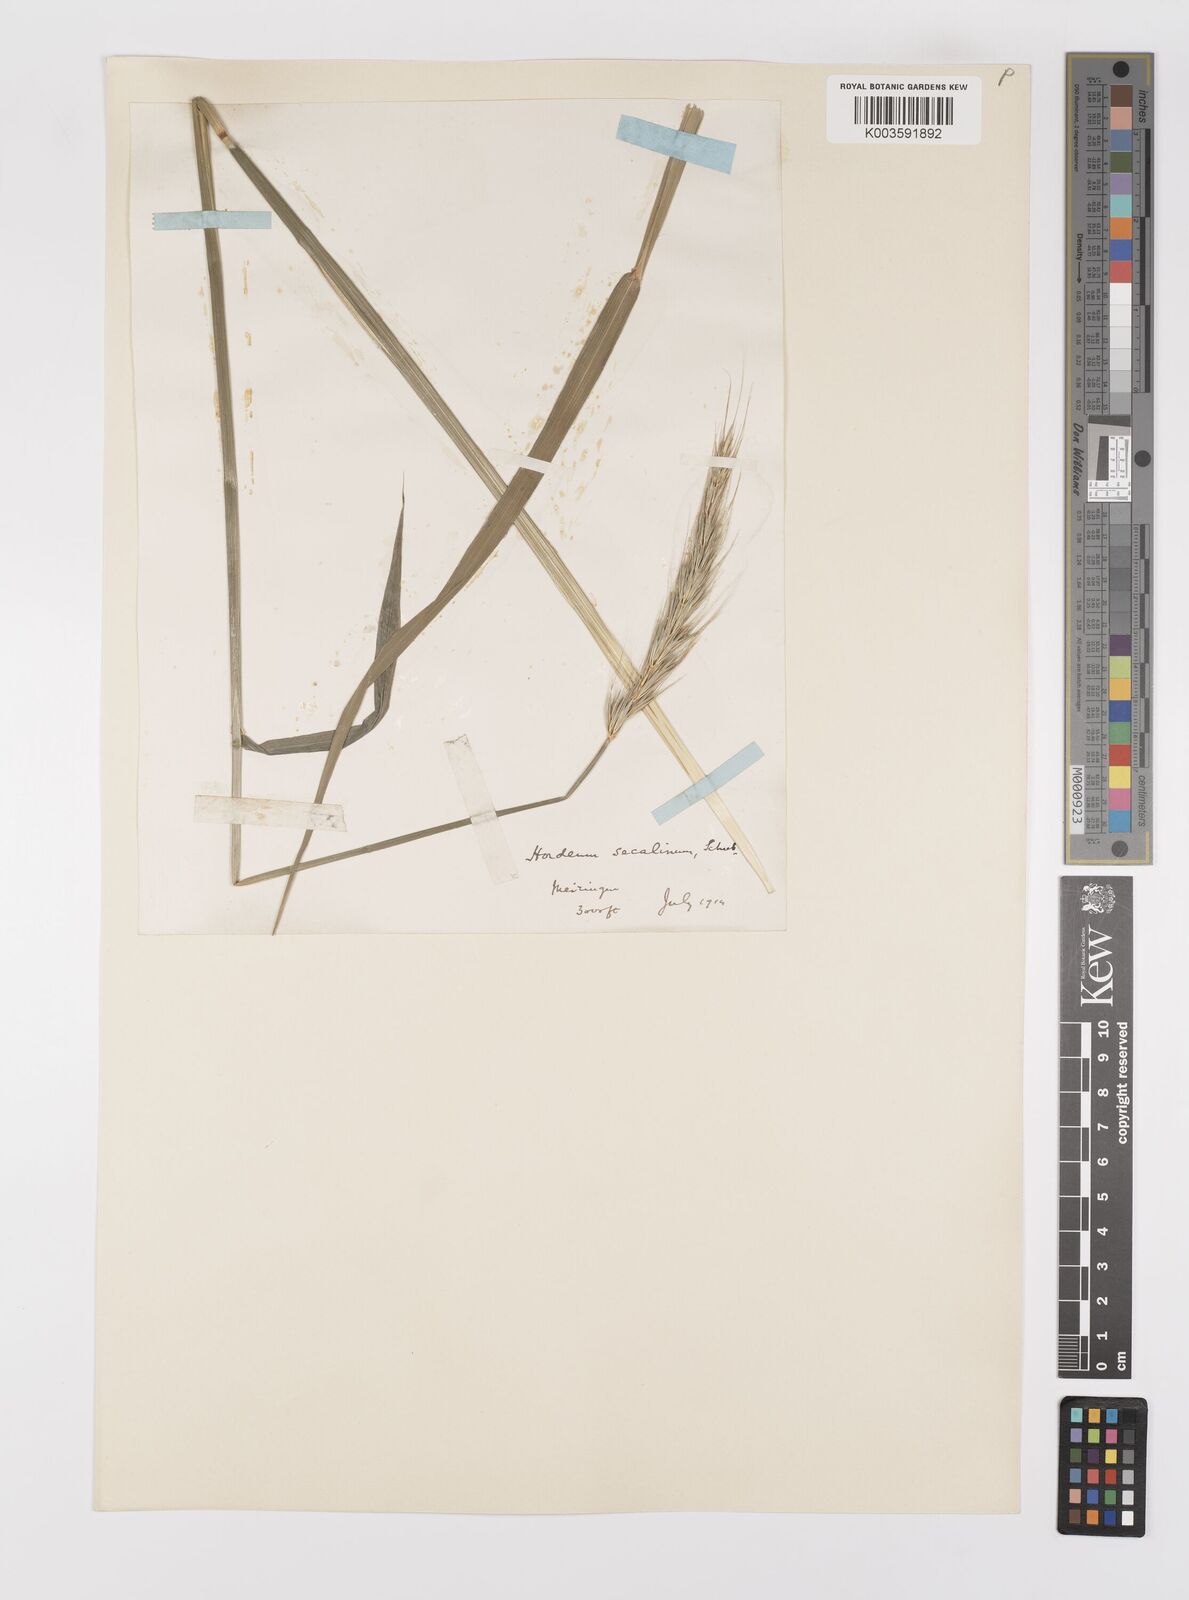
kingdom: Plantae
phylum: Tracheophyta
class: Liliopsida
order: Poales
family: Poaceae
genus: Hordelymus
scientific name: Hordelymus europaeus
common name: Wood-barley
